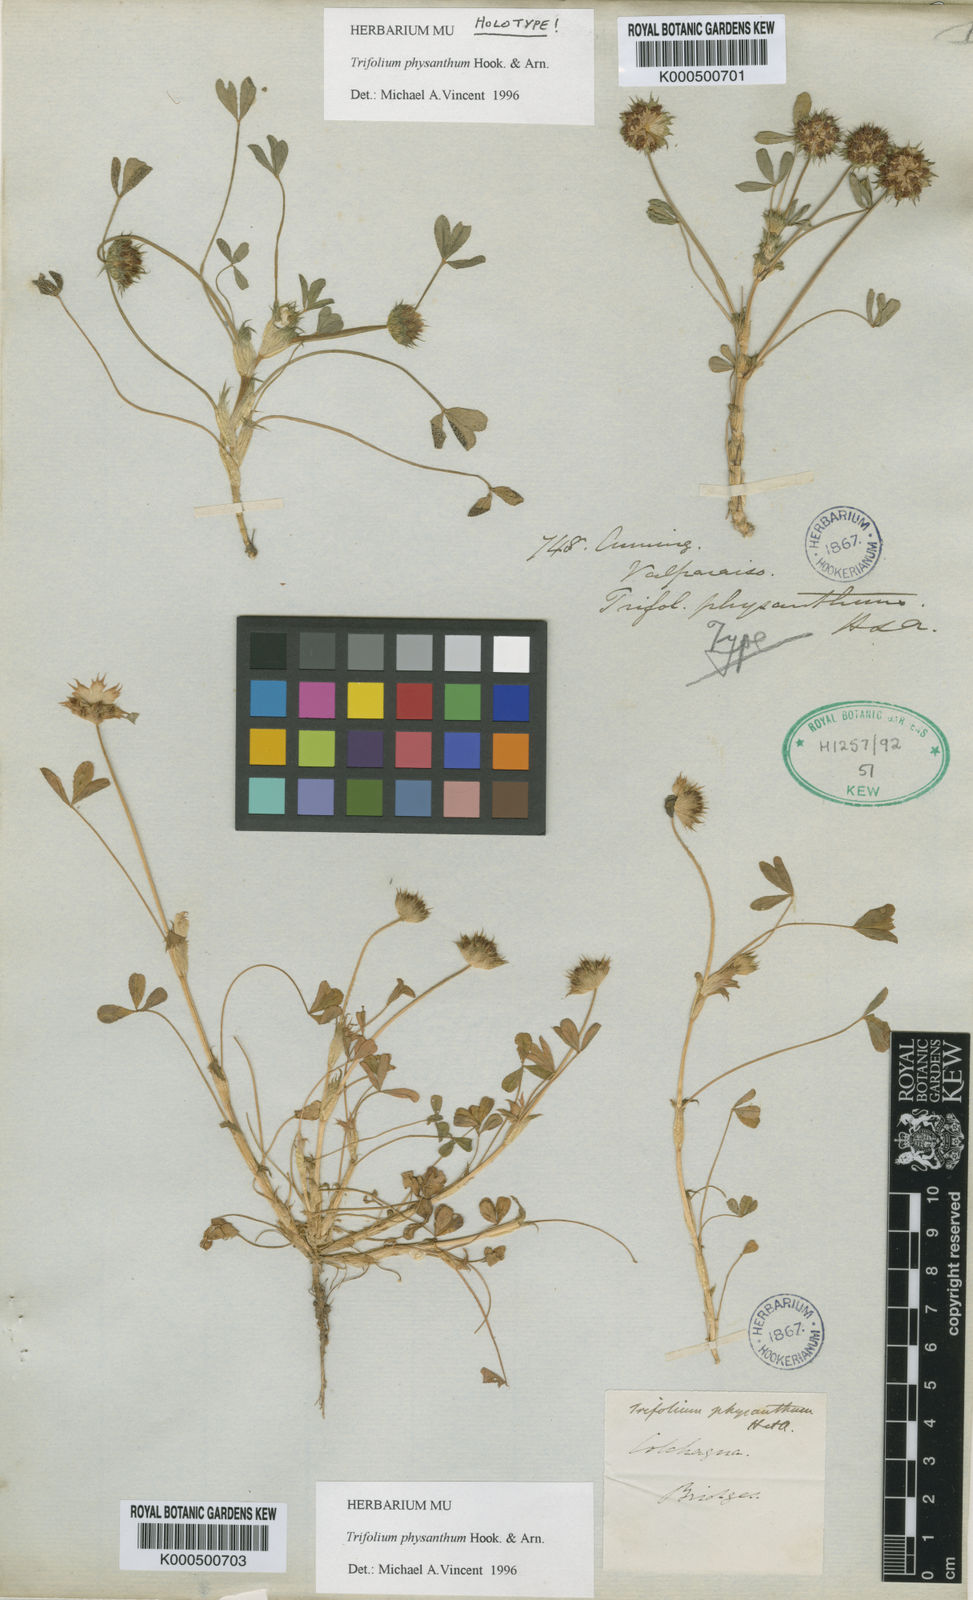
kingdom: Plantae
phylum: Tracheophyta
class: Magnoliopsida
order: Fabales
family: Fabaceae
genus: Trifolium
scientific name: Trifolium physanthum
